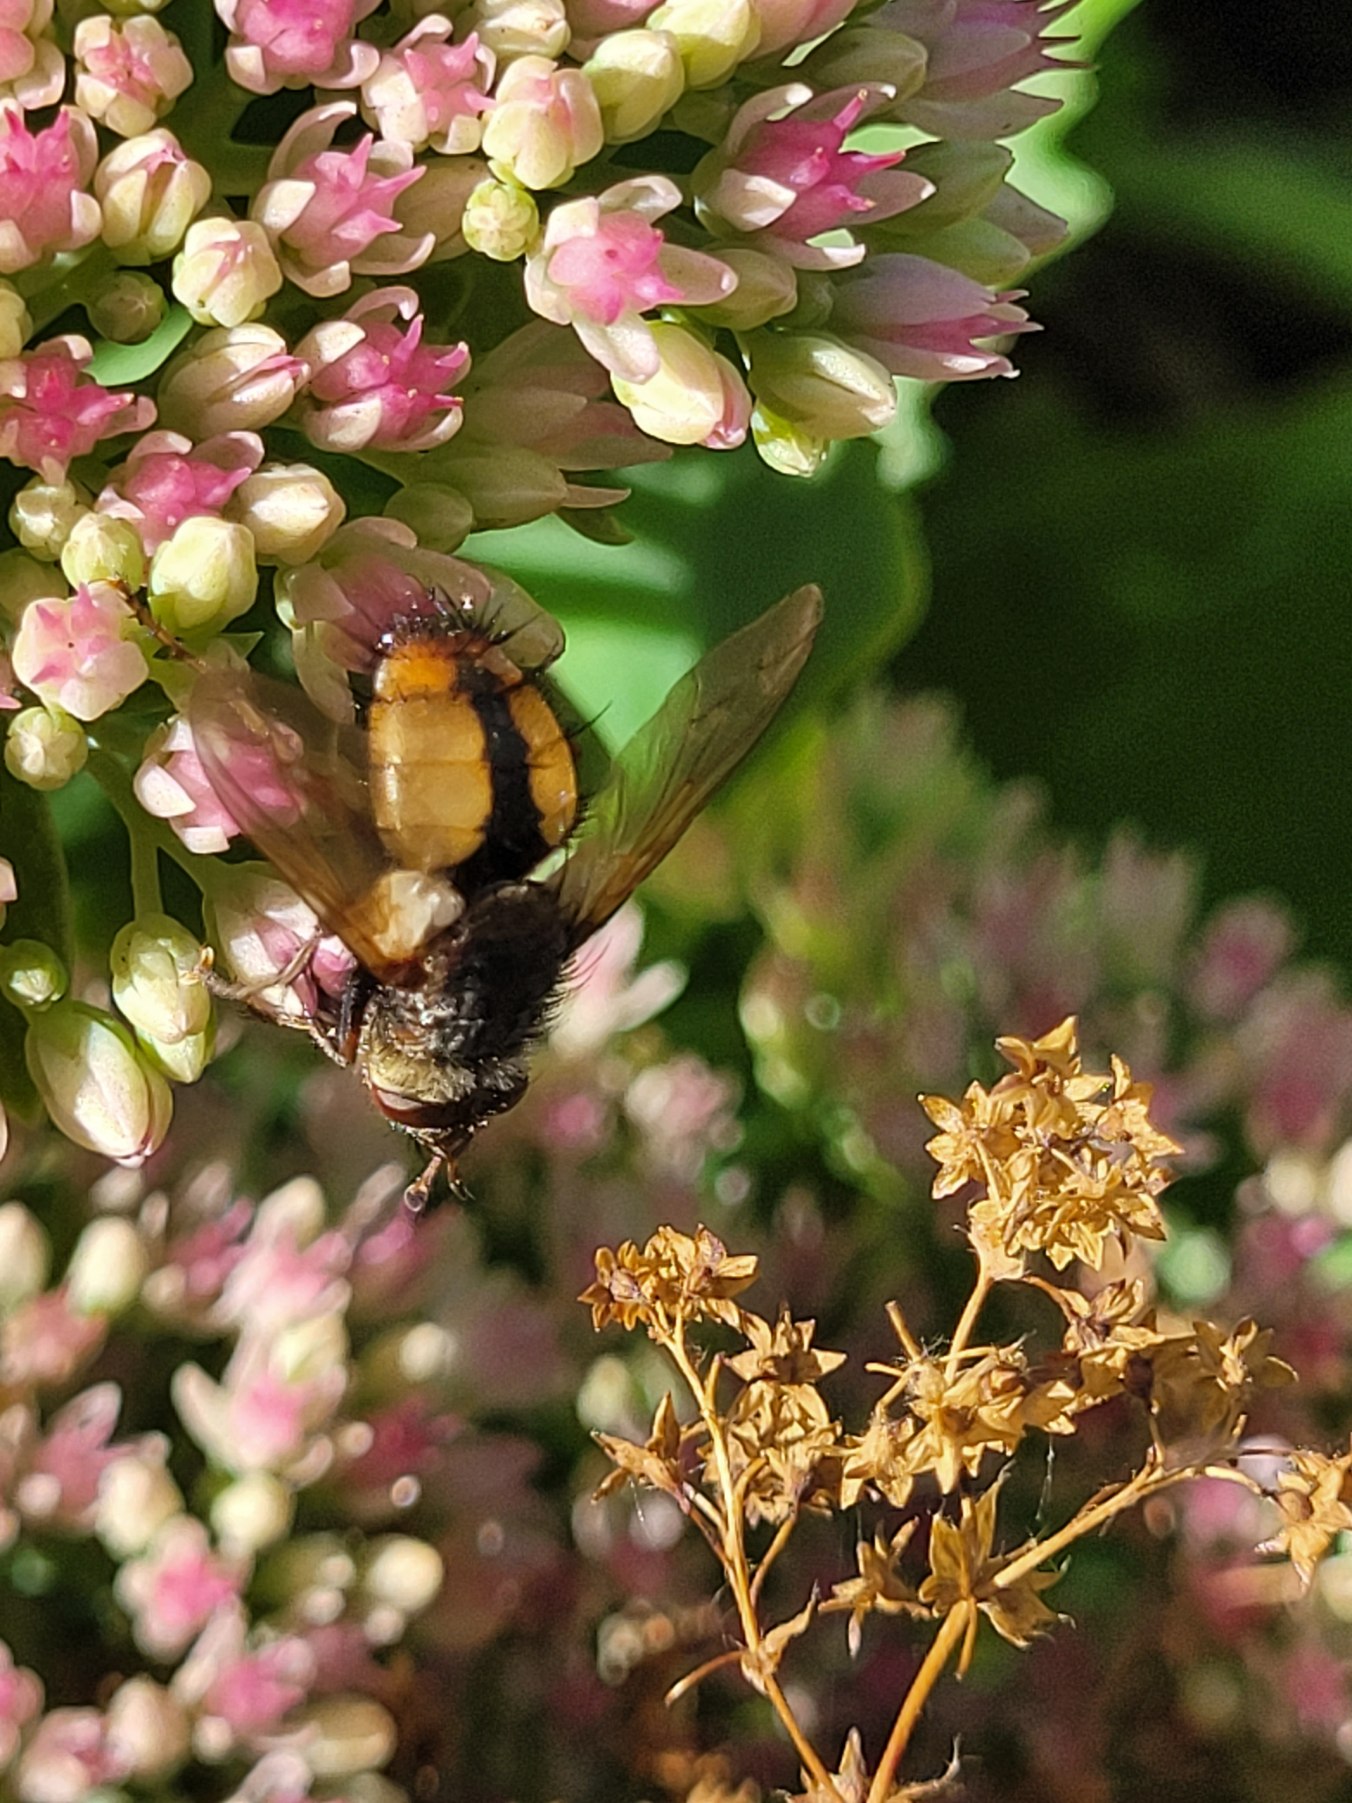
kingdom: Animalia
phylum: Arthropoda
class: Insecta
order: Diptera
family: Tachinidae
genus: Tachina
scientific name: Tachina fera
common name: Mellemfluen oskar
